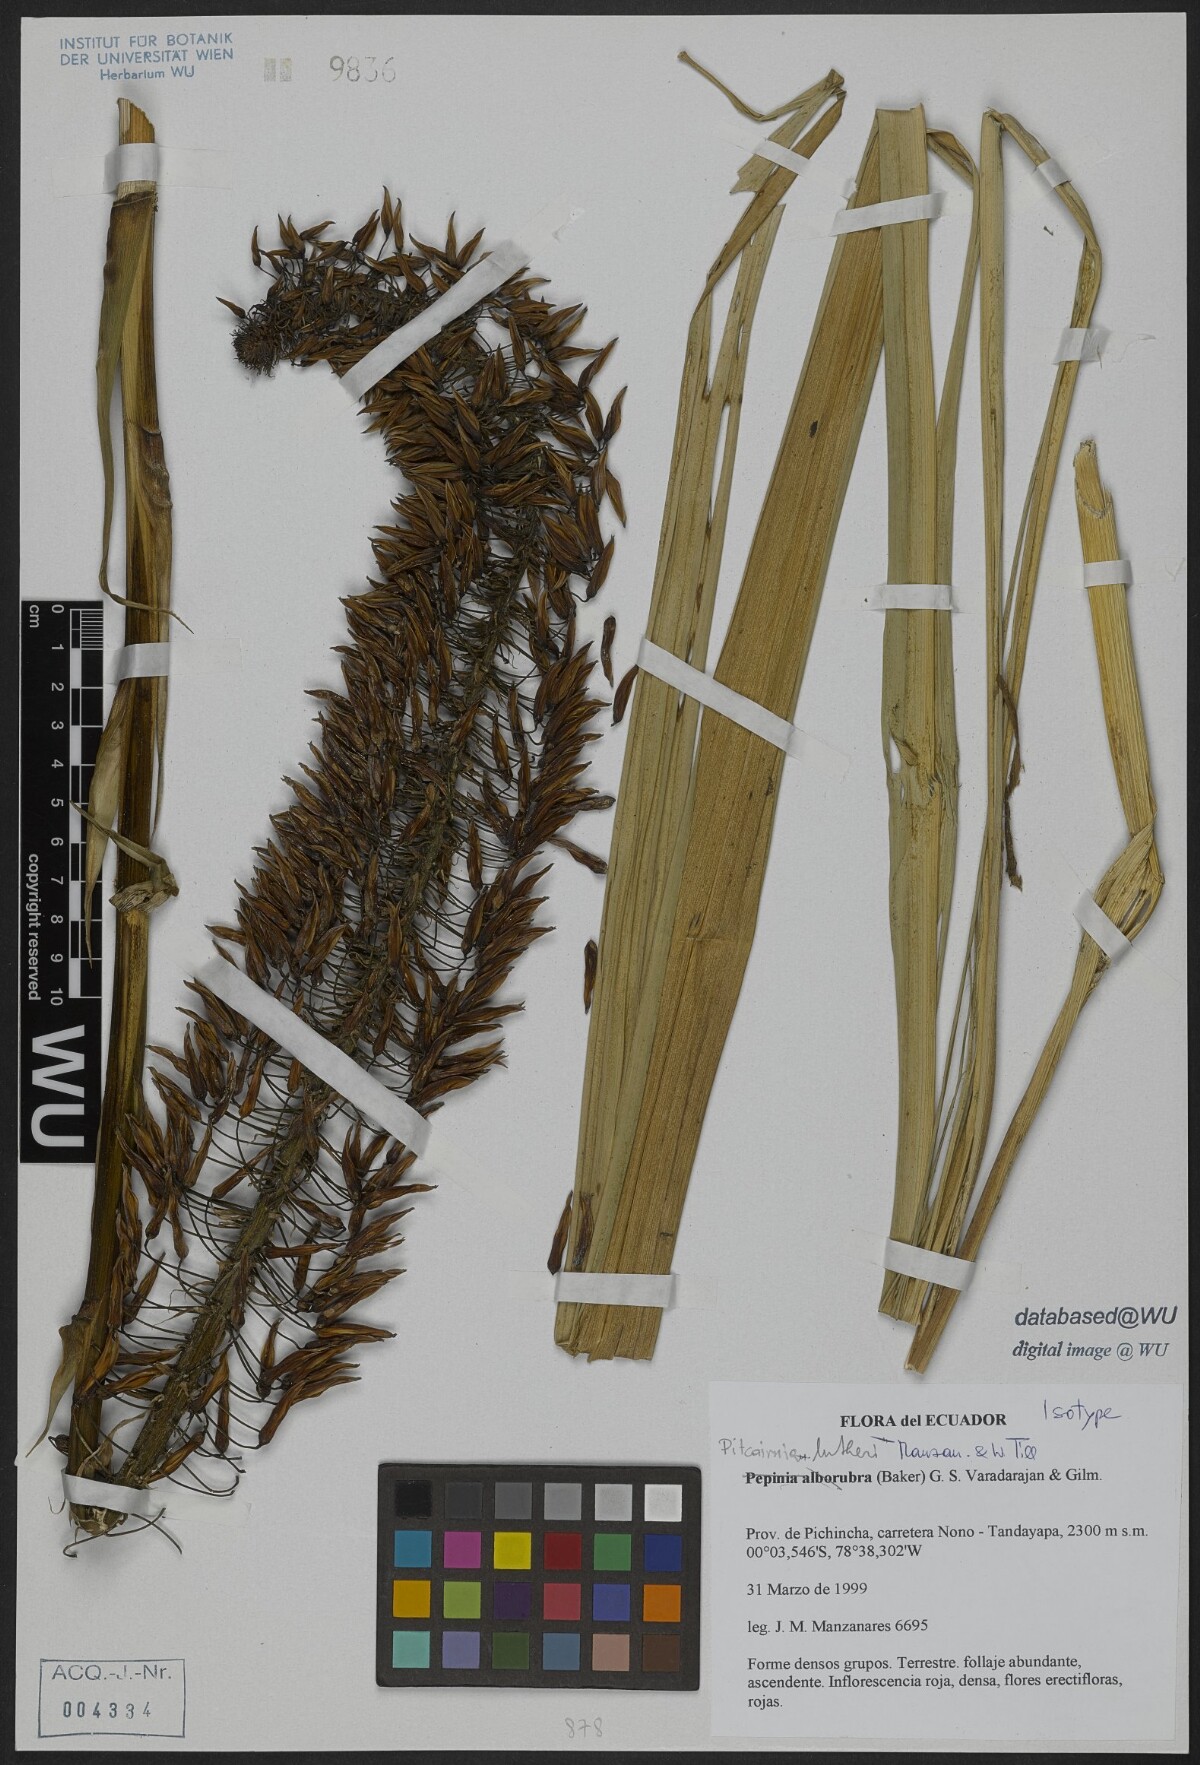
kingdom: Plantae
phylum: Tracheophyta
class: Liliopsida
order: Poales
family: Bromeliaceae
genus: Pitcairnia
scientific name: Pitcairnia lutheri
